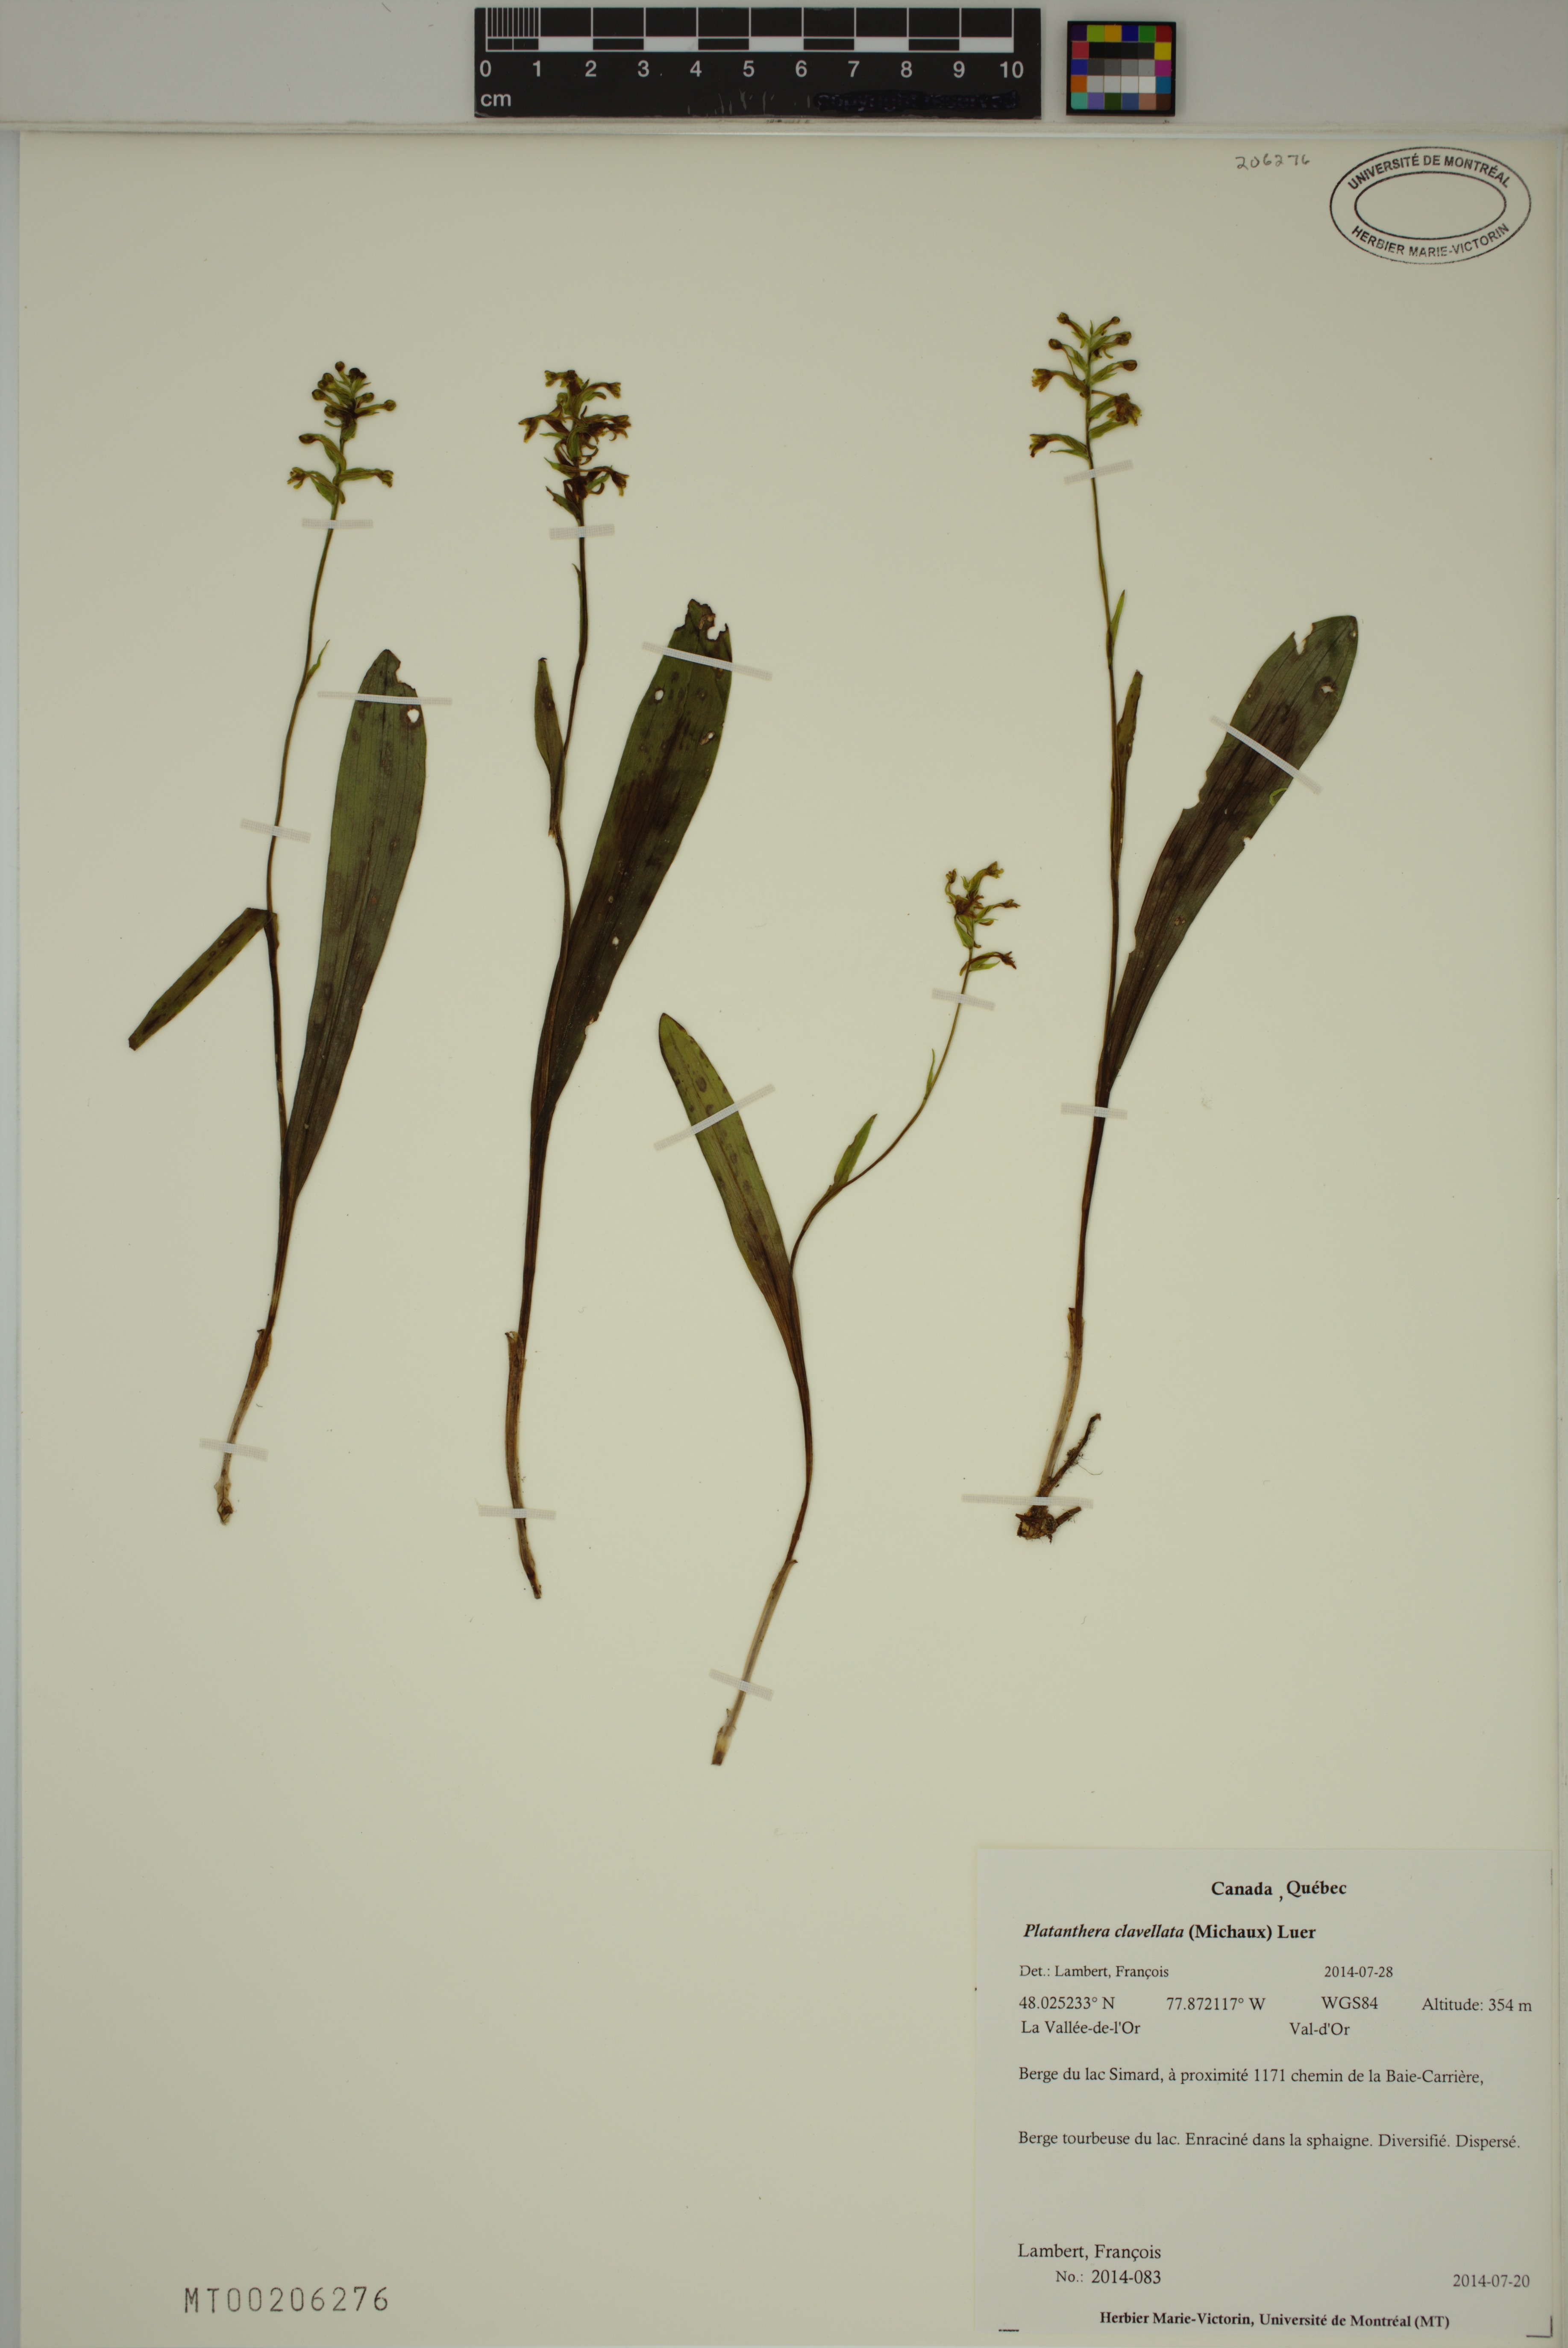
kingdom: Plantae
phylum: Tracheophyta
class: Liliopsida
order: Asparagales
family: Orchidaceae
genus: Platanthera
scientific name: Platanthera clavellata
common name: Club-spur orchid
